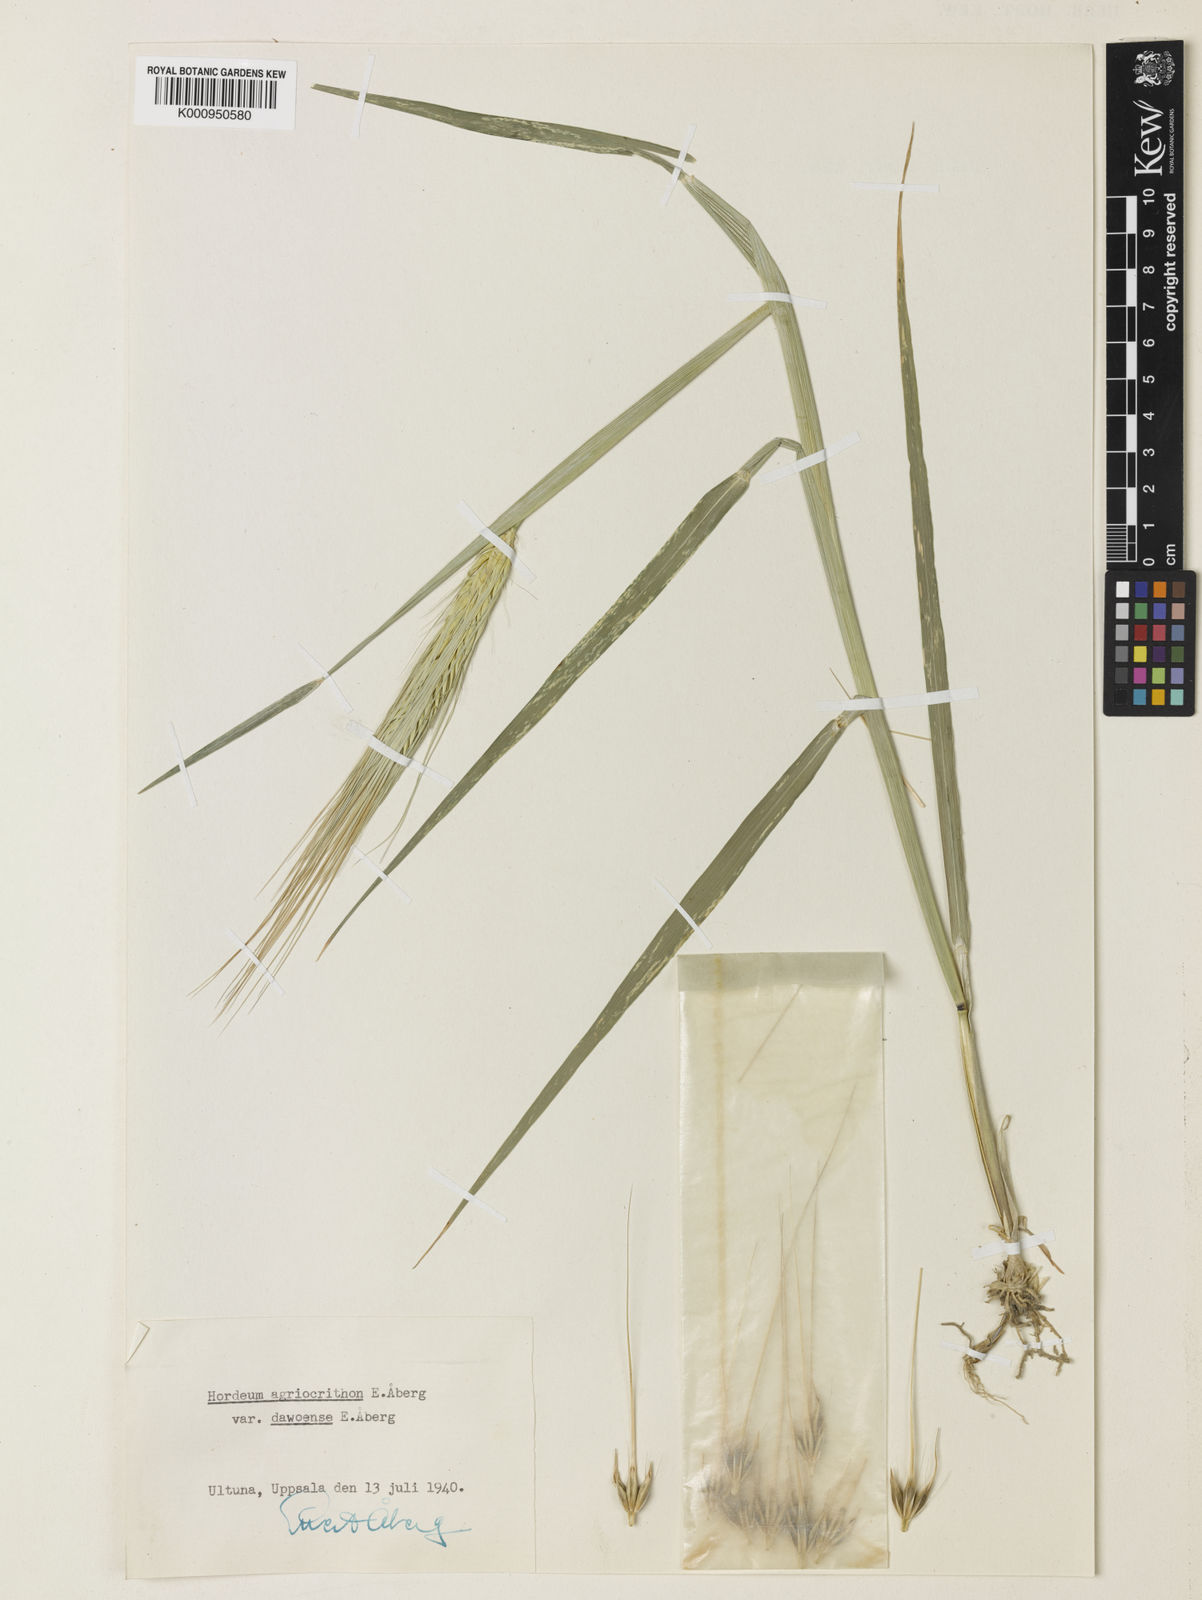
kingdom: Plantae
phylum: Tracheophyta
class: Liliopsida
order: Poales
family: Poaceae
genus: Hordeum
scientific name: Hordeum vulgare
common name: Common barley
